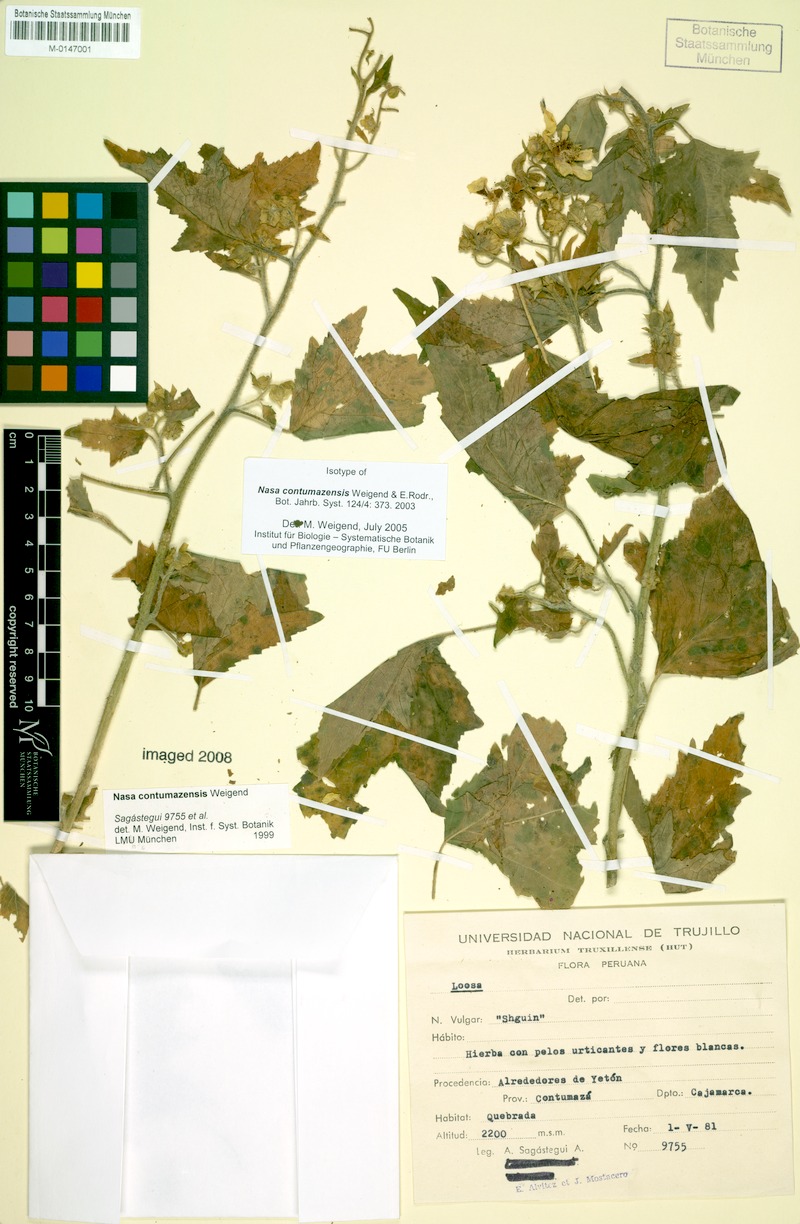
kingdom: Plantae
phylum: Tracheophyta
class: Magnoliopsida
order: Cornales
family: Loasaceae
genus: Nasa
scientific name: Nasa contumazensis
